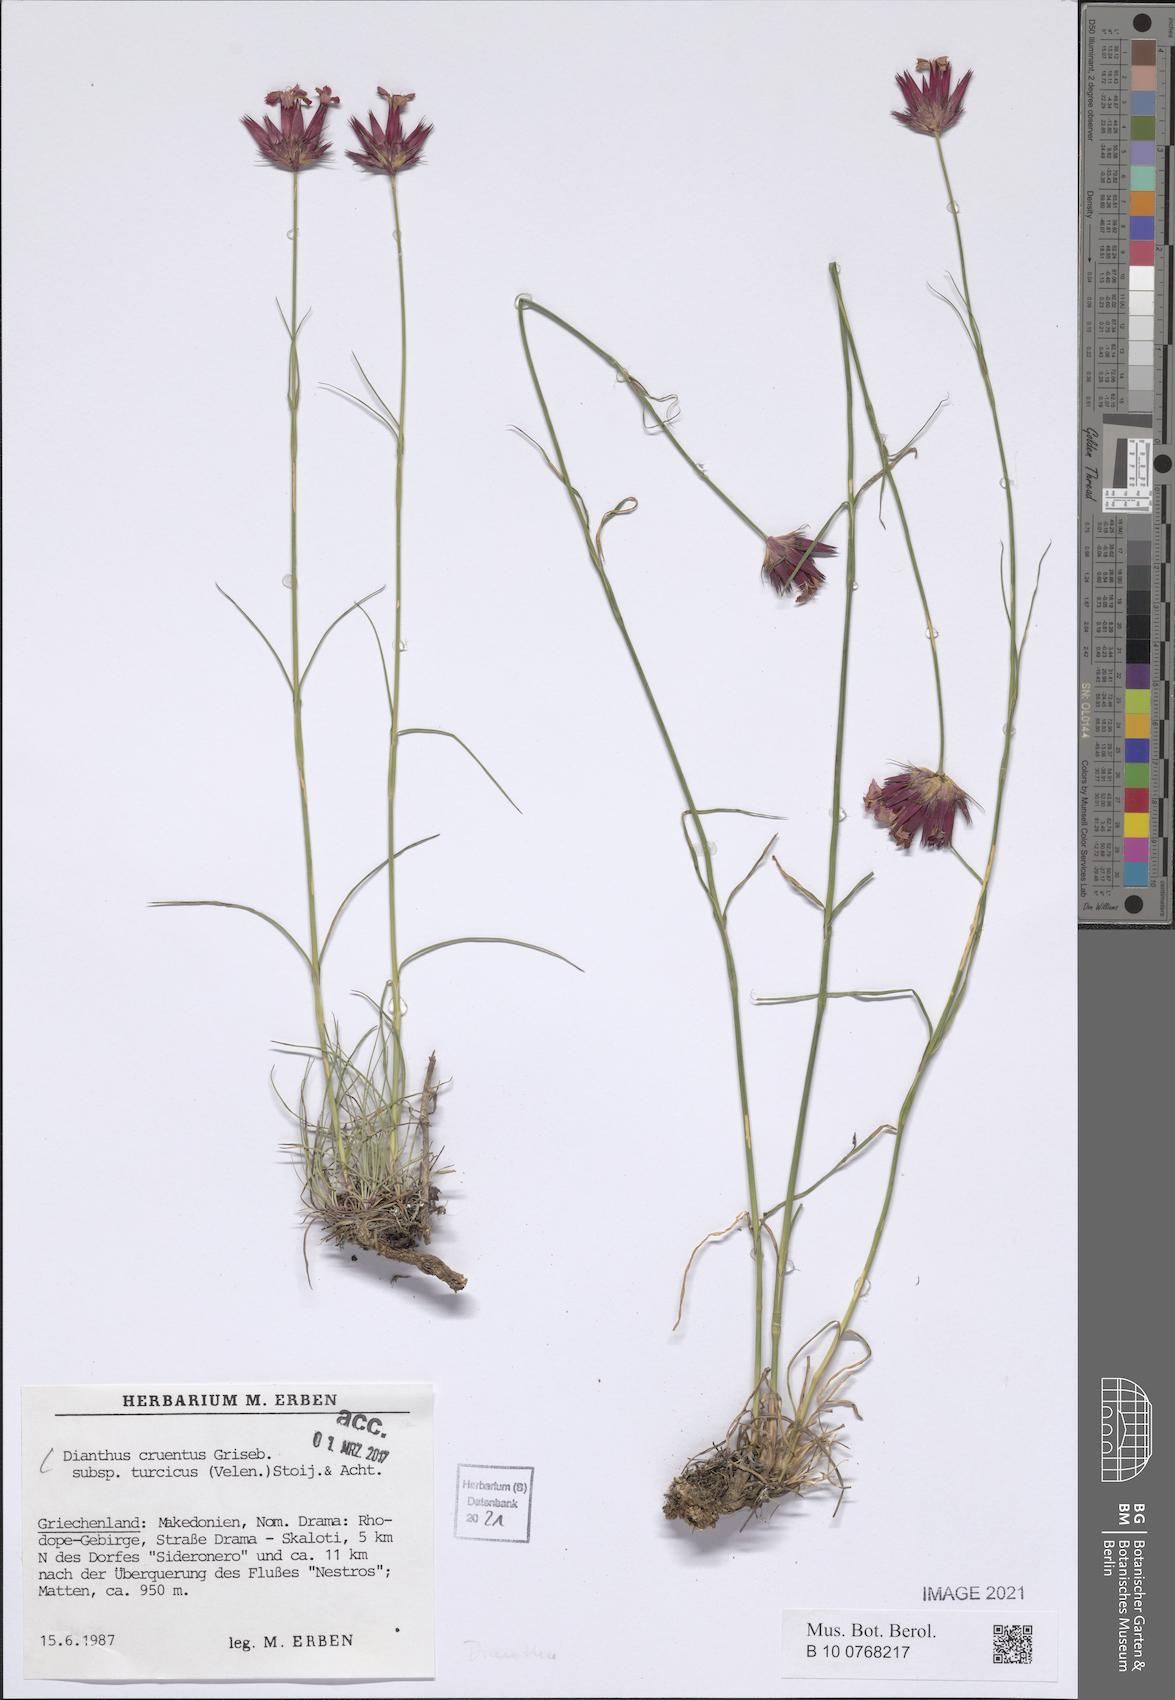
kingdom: Plantae
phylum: Tracheophyta
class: Magnoliopsida
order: Caryophyllales
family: Caryophyllaceae
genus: Dianthus
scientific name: Dianthus cruentus
